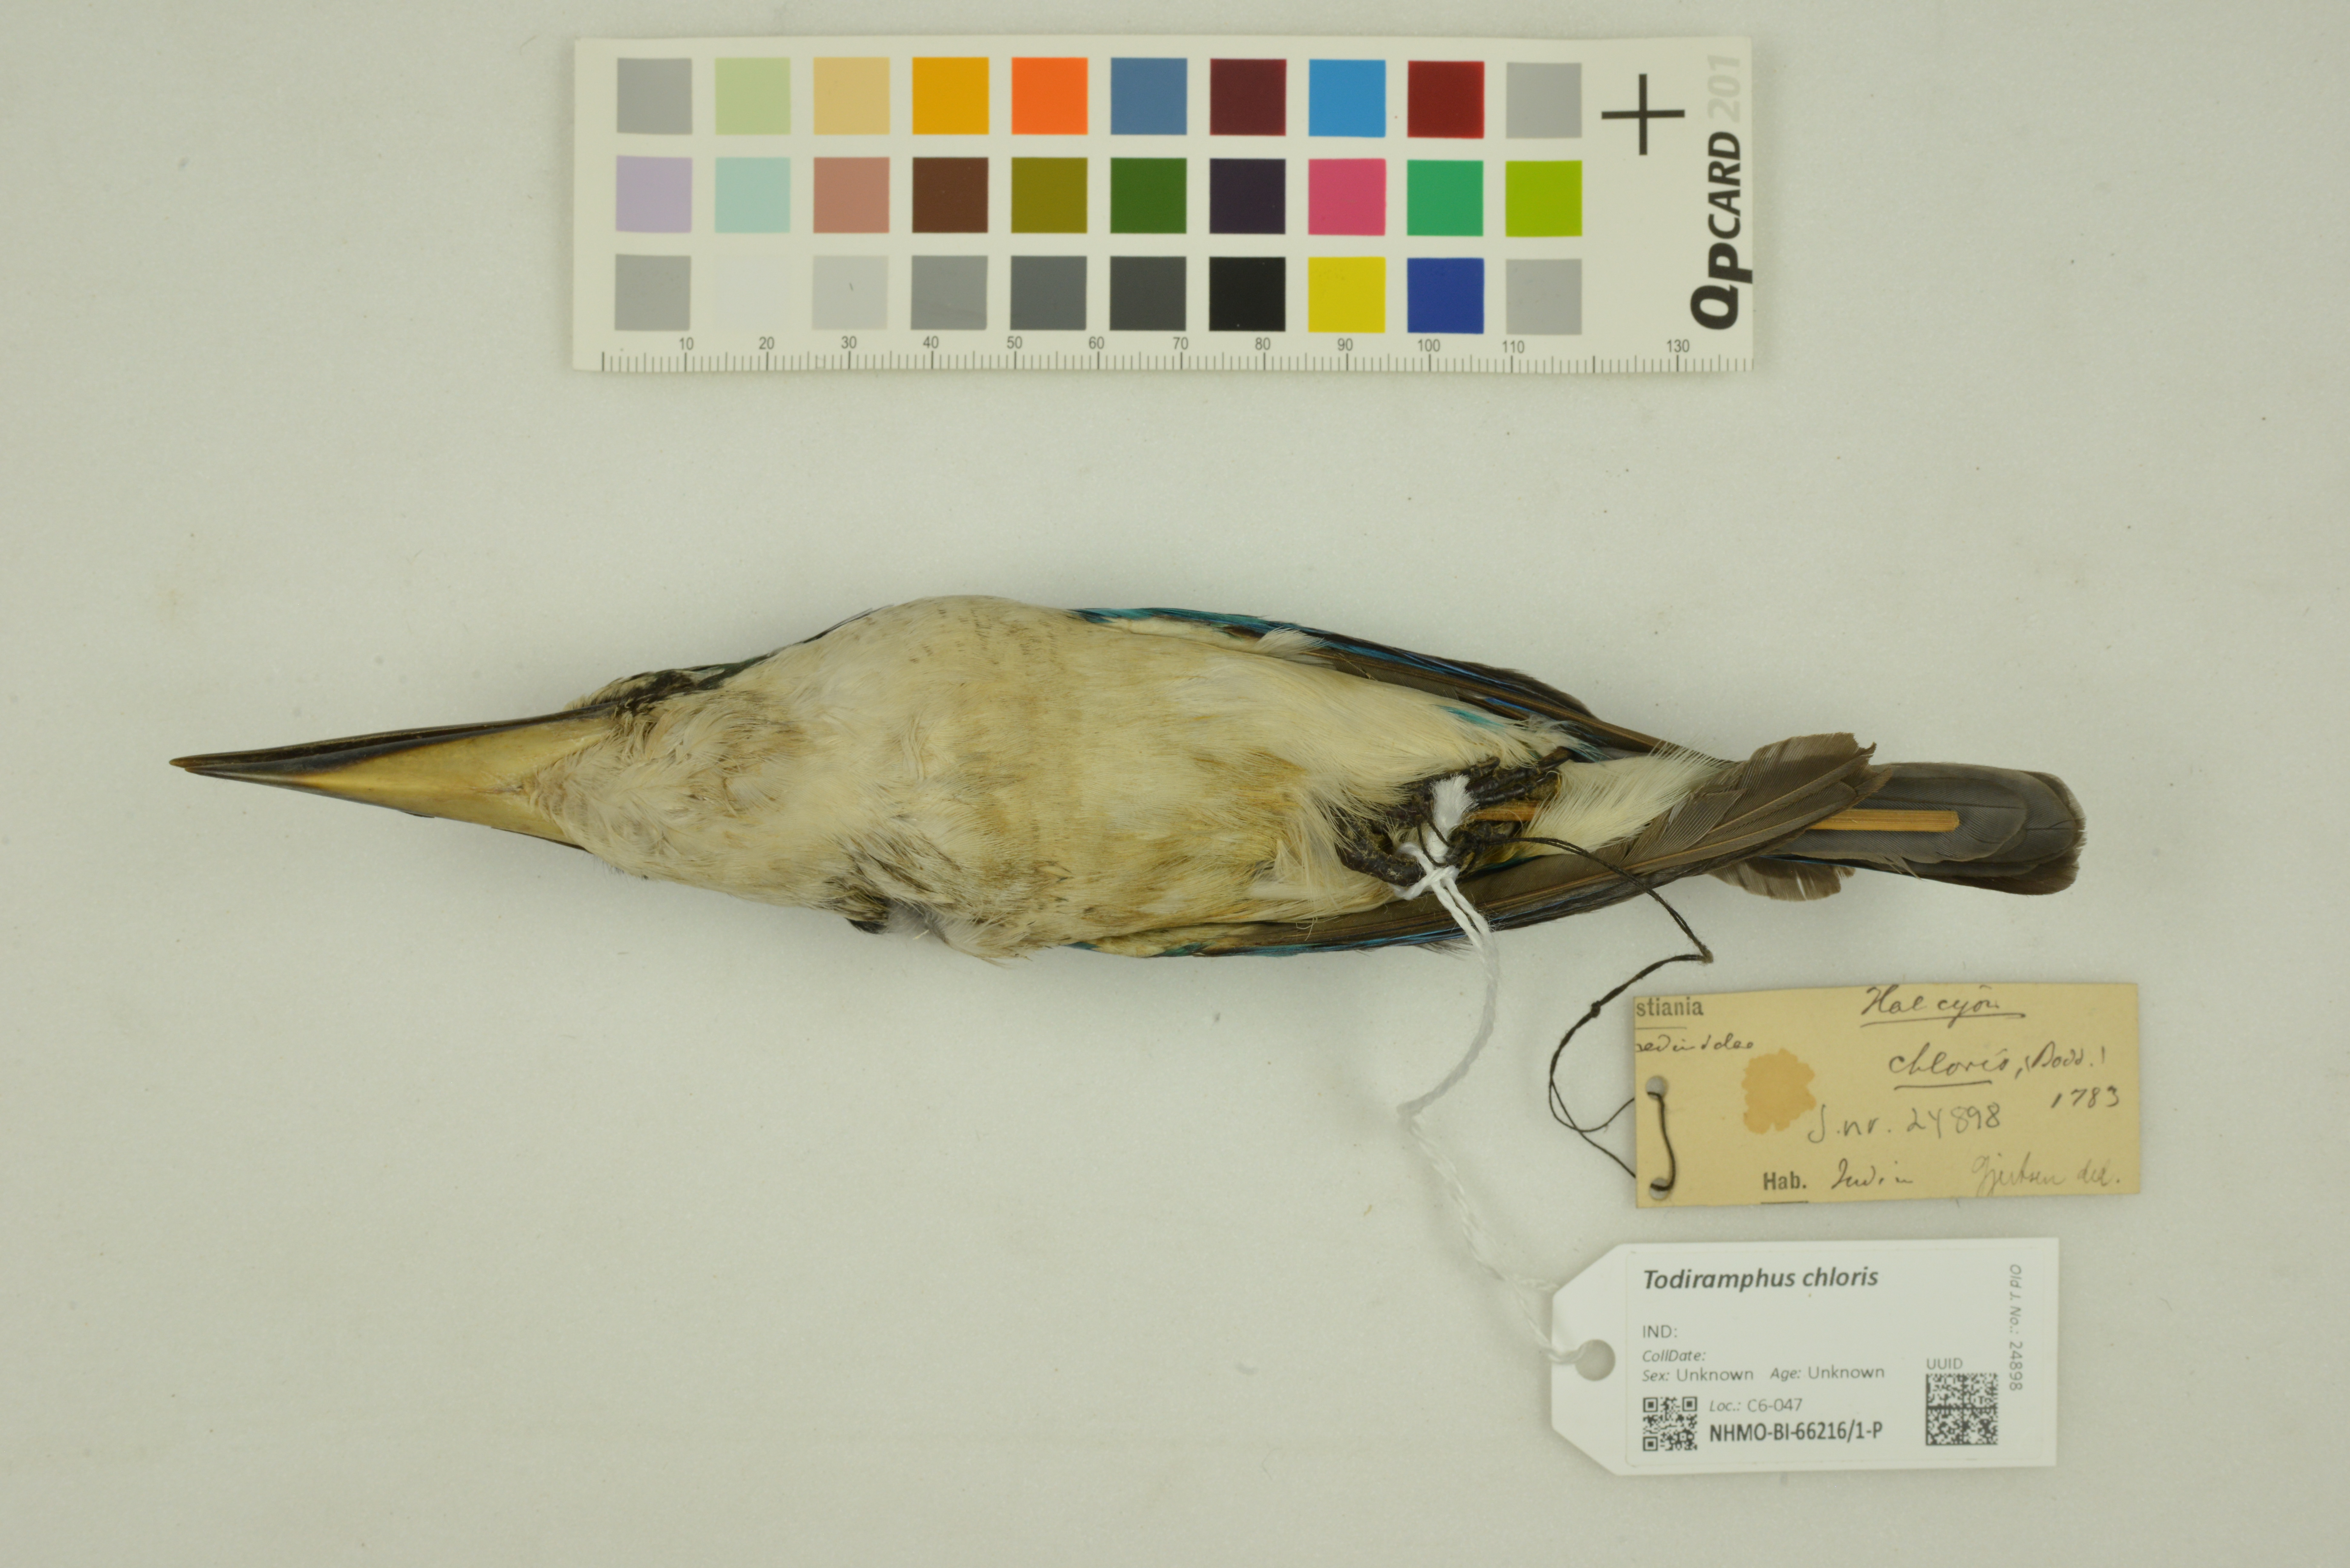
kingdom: Animalia
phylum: Chordata
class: Aves
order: Coraciiformes
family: Alcedinidae
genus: Todiramphus
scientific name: Todiramphus chloris
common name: Collared kingfisher
